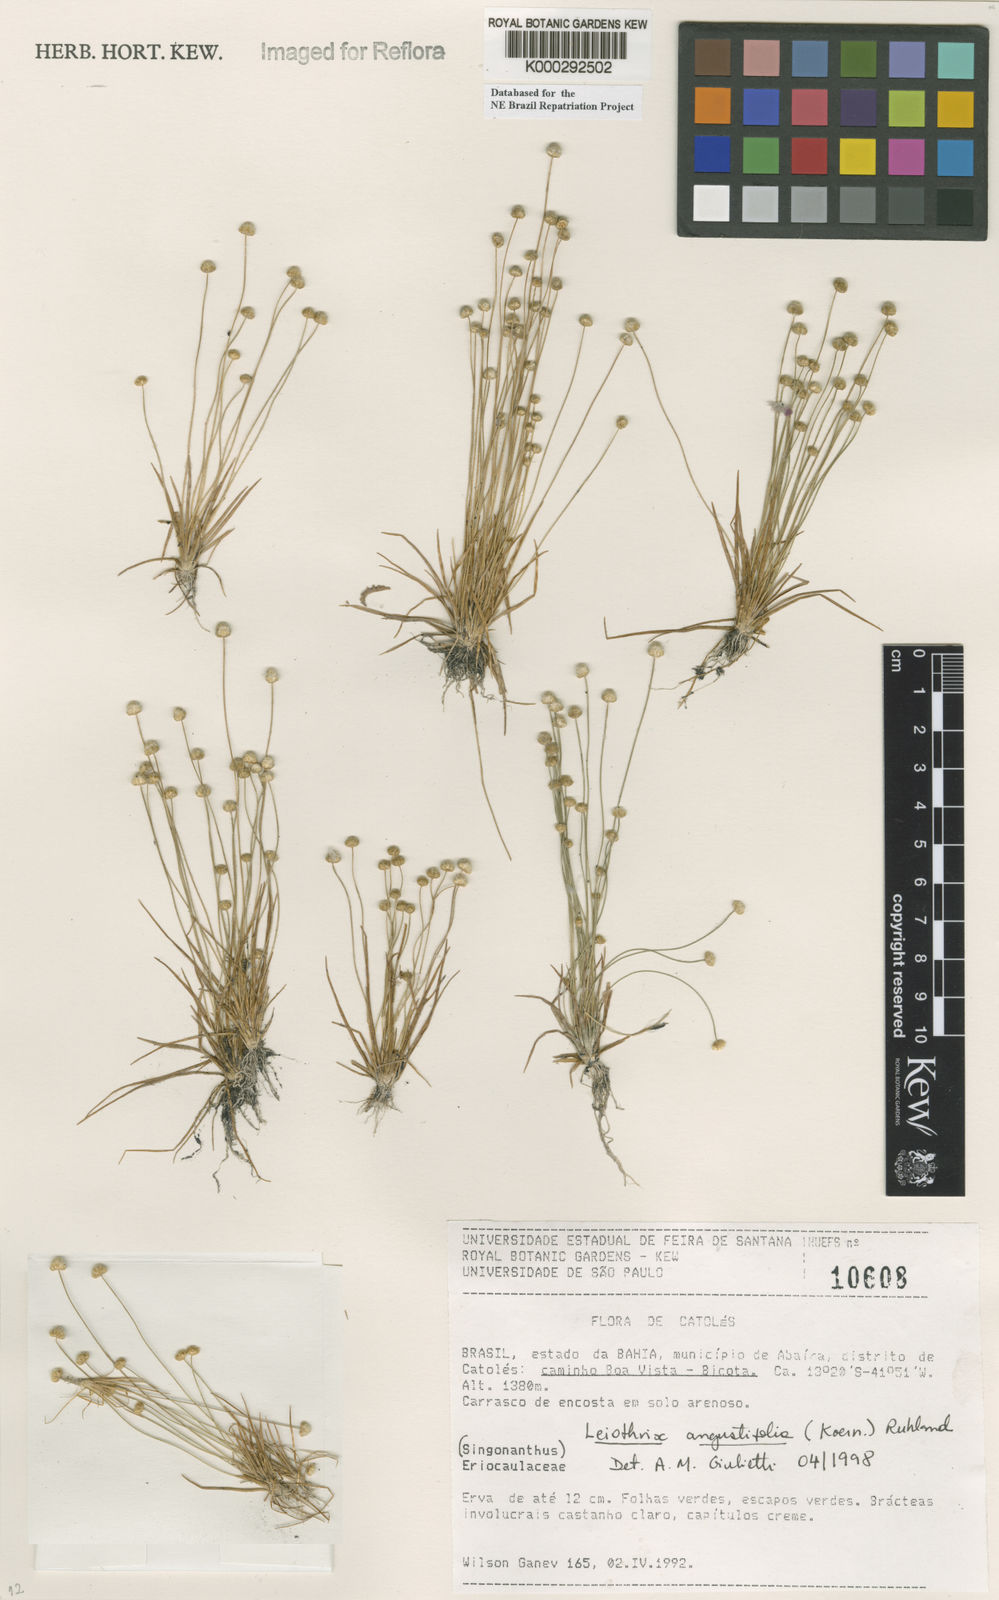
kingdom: Plantae
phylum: Tracheophyta
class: Liliopsida
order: Poales
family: Eriocaulaceae
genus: Leiothrix
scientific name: Leiothrix angustifolia
